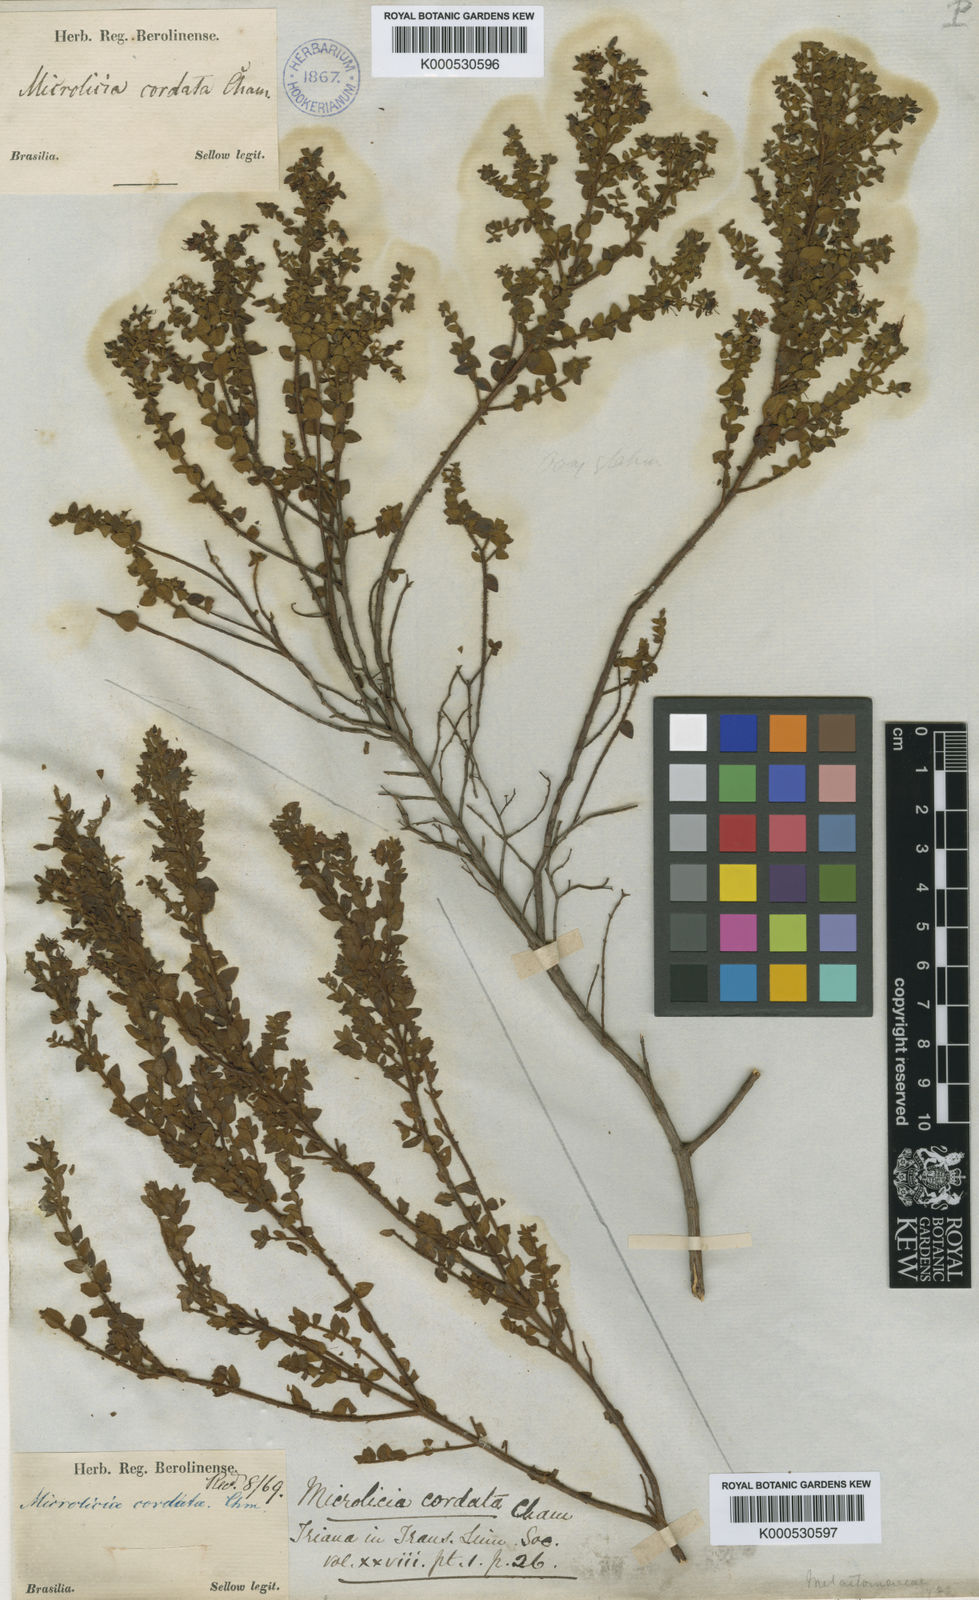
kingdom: Plantae
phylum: Tracheophyta
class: Magnoliopsida
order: Myrtales
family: Melastomataceae
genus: Microlicia
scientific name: Microlicia cordata
